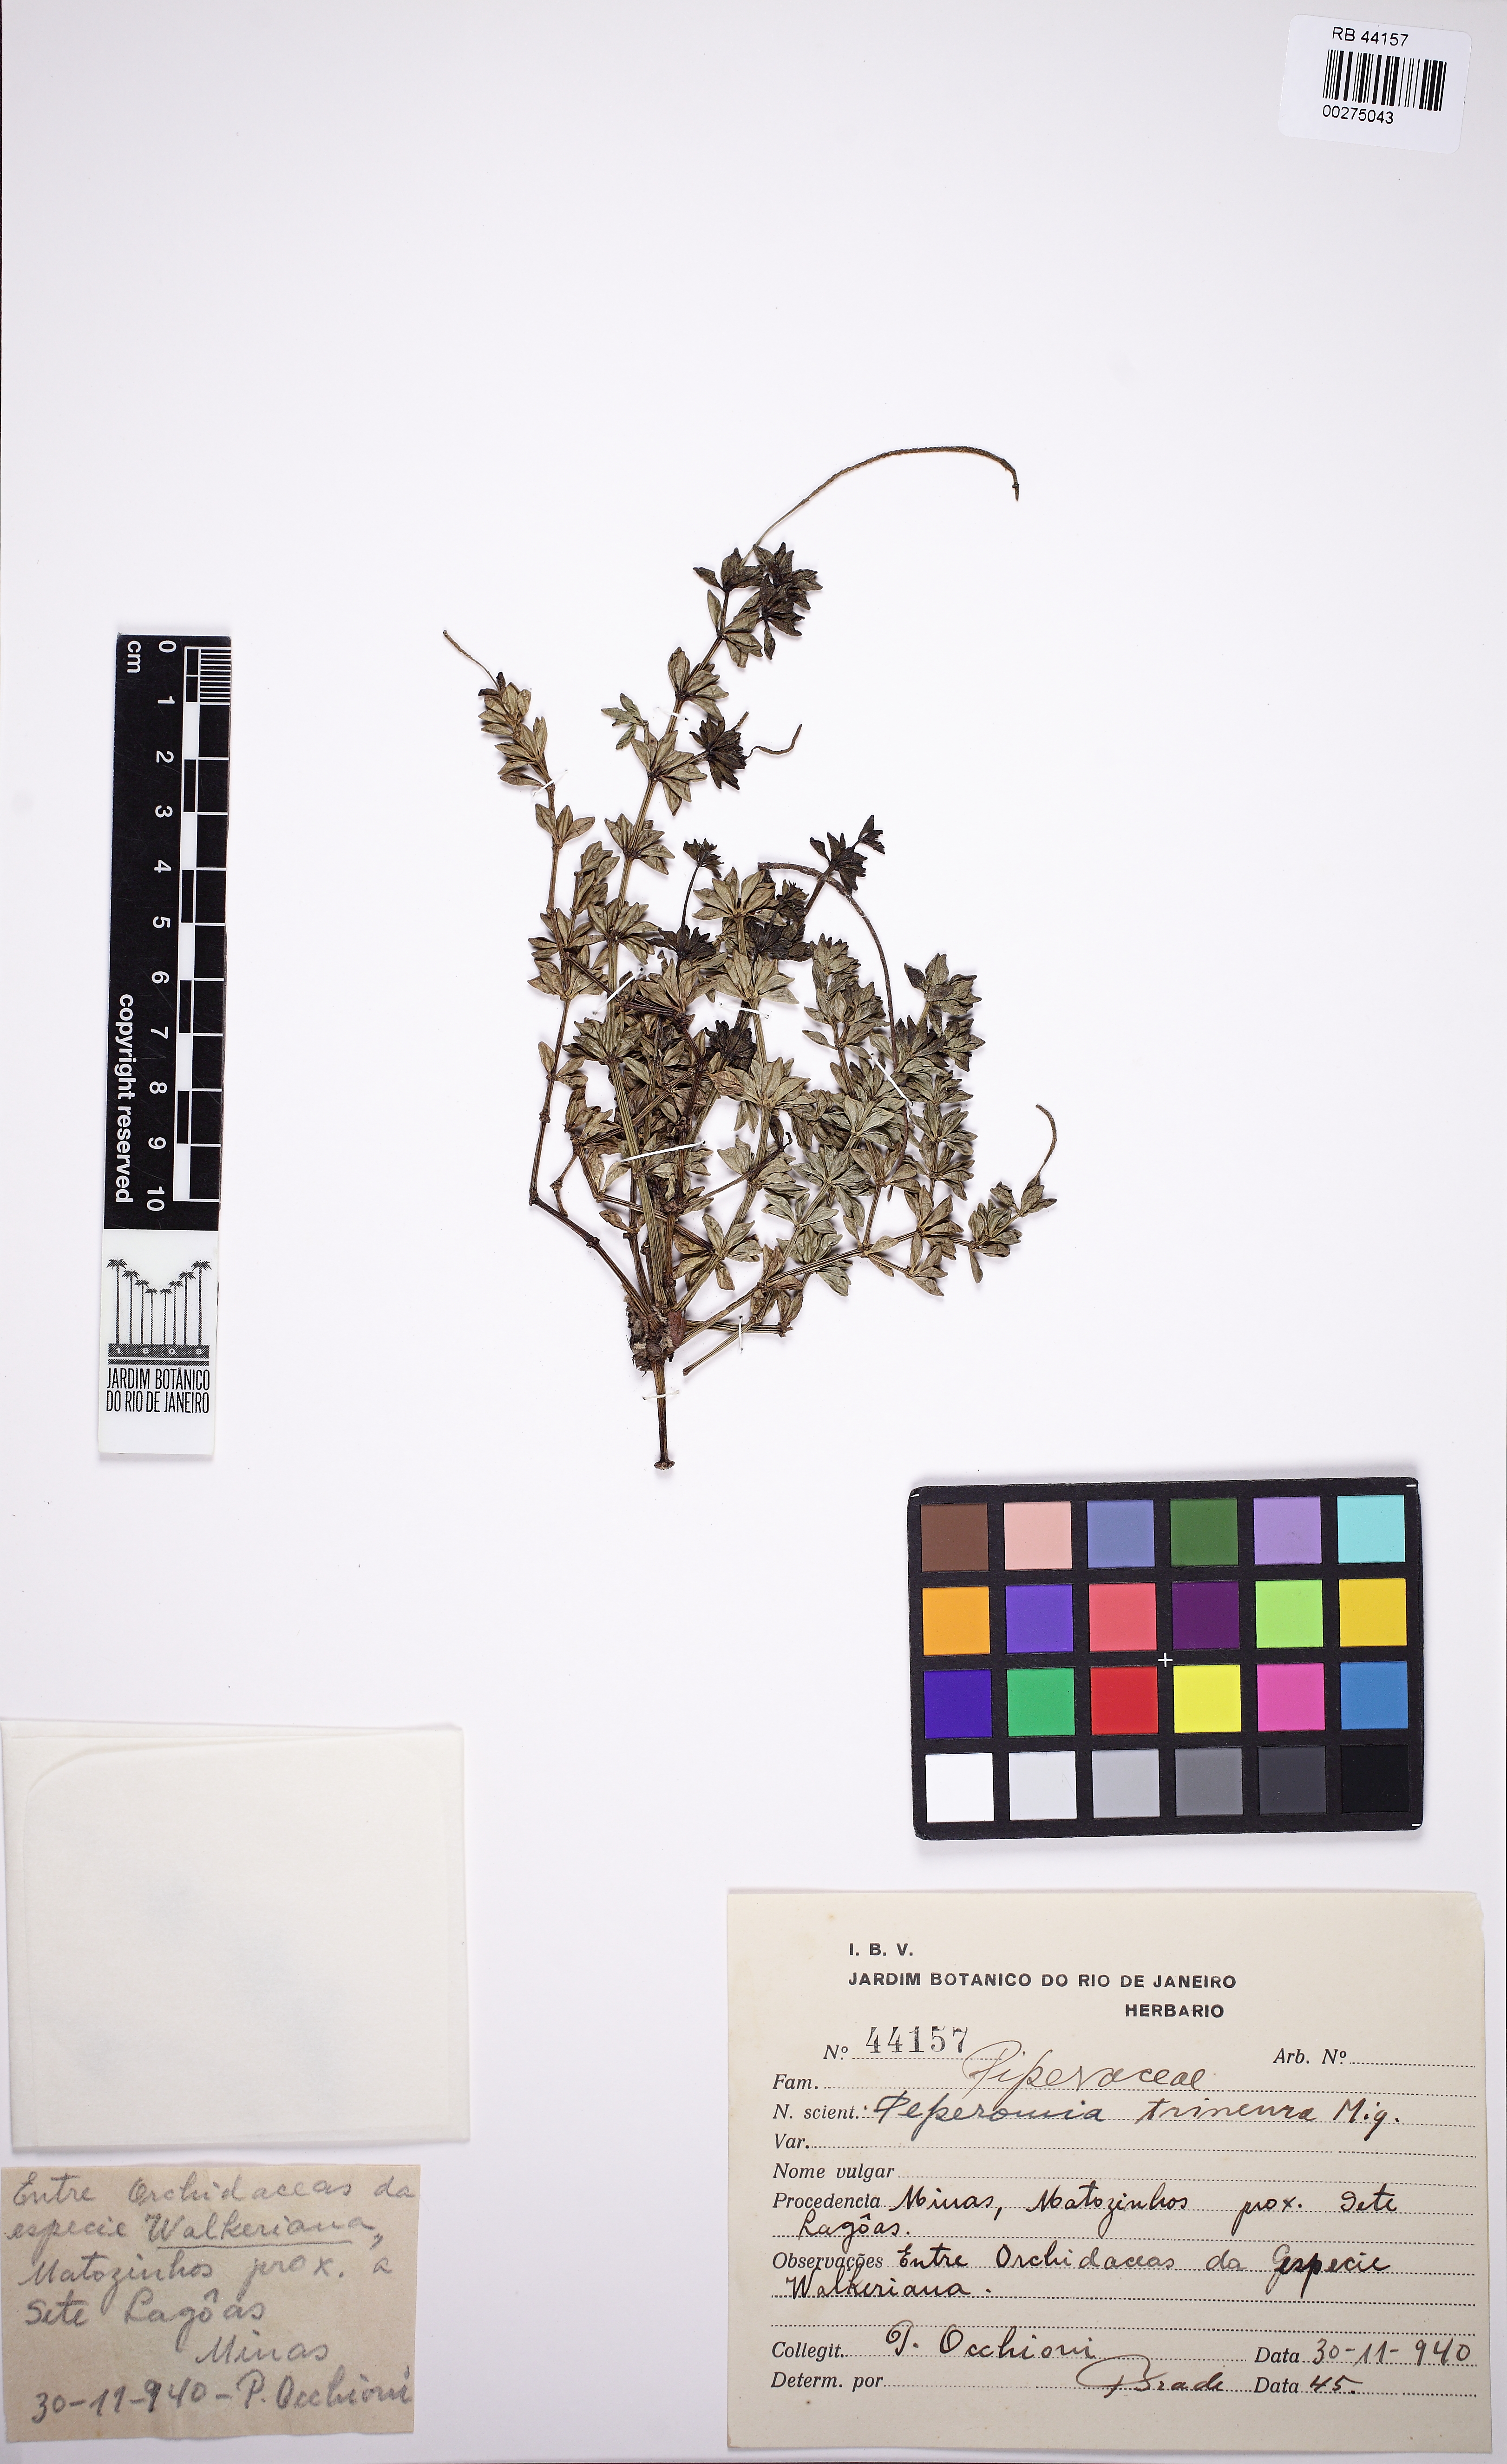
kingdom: Plantae
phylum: Tracheophyta
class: Magnoliopsida
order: Piperales
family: Piperaceae
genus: Peperomia
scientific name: Peperomia trineura
